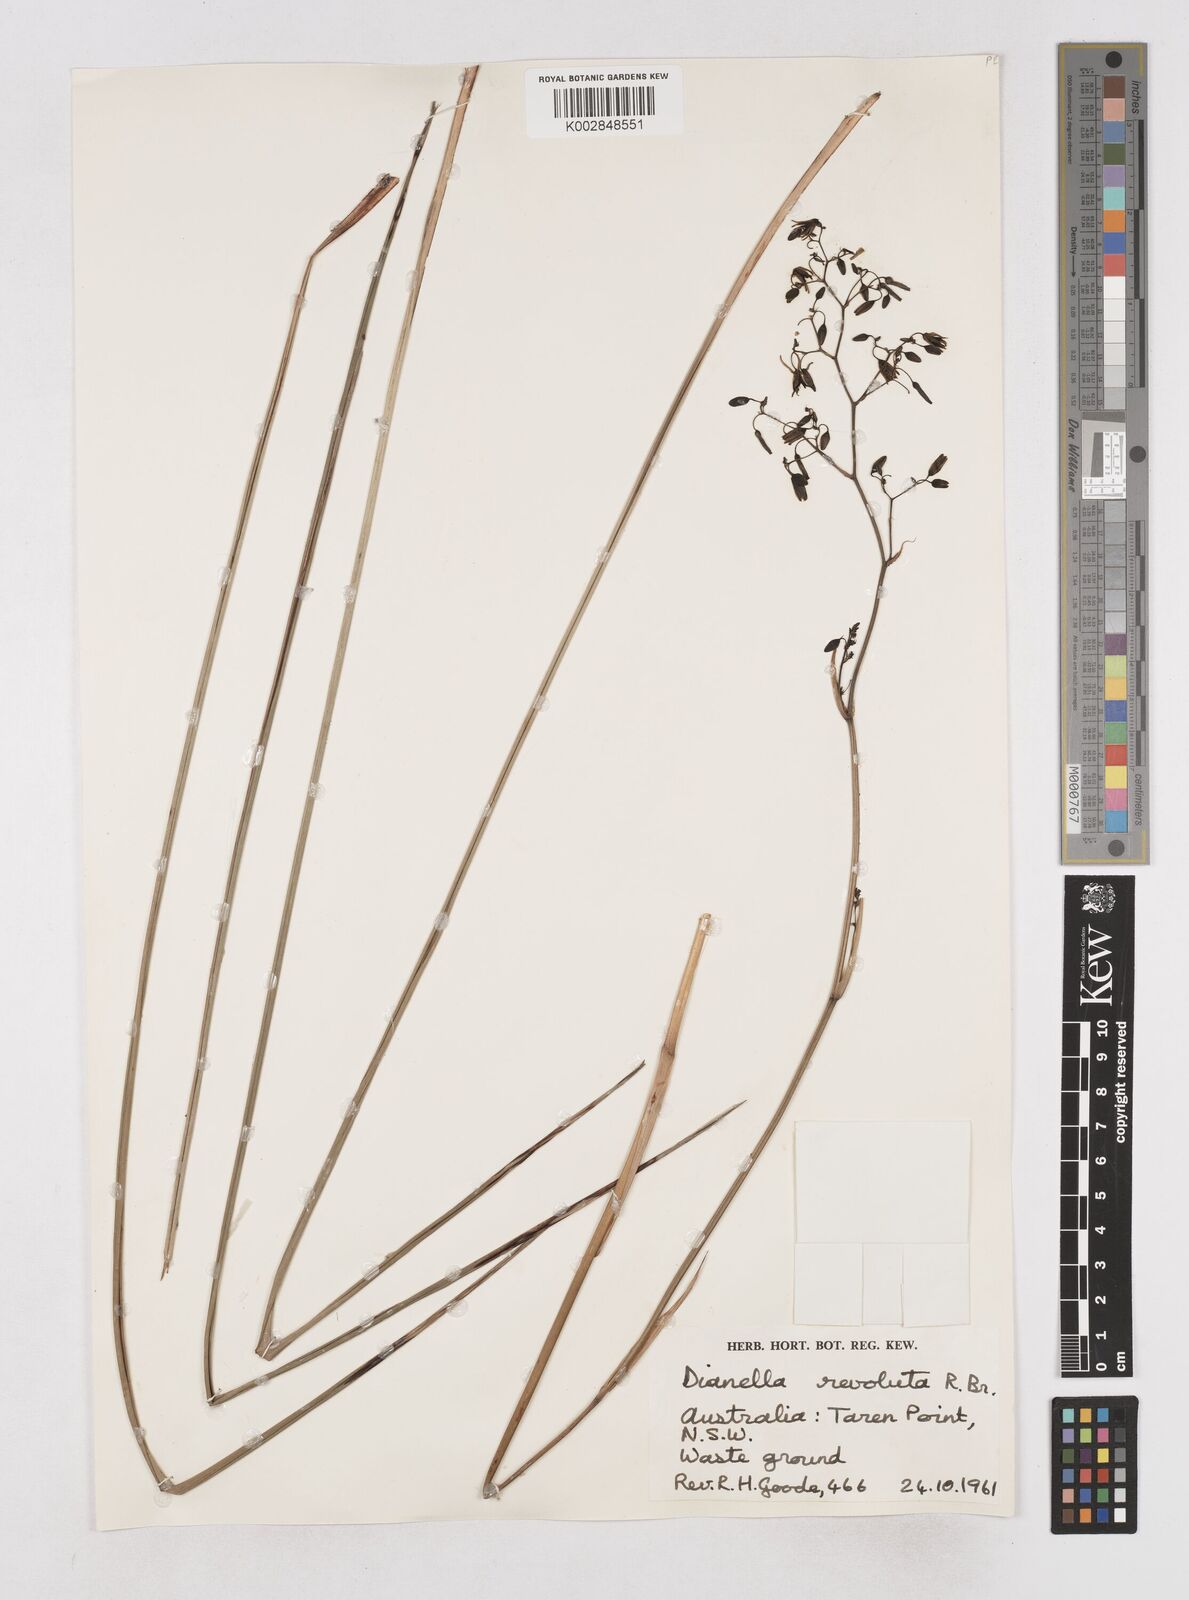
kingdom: Plantae
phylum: Tracheophyta
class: Liliopsida
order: Asparagales
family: Asphodelaceae
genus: Dianella
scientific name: Dianella revoluta
